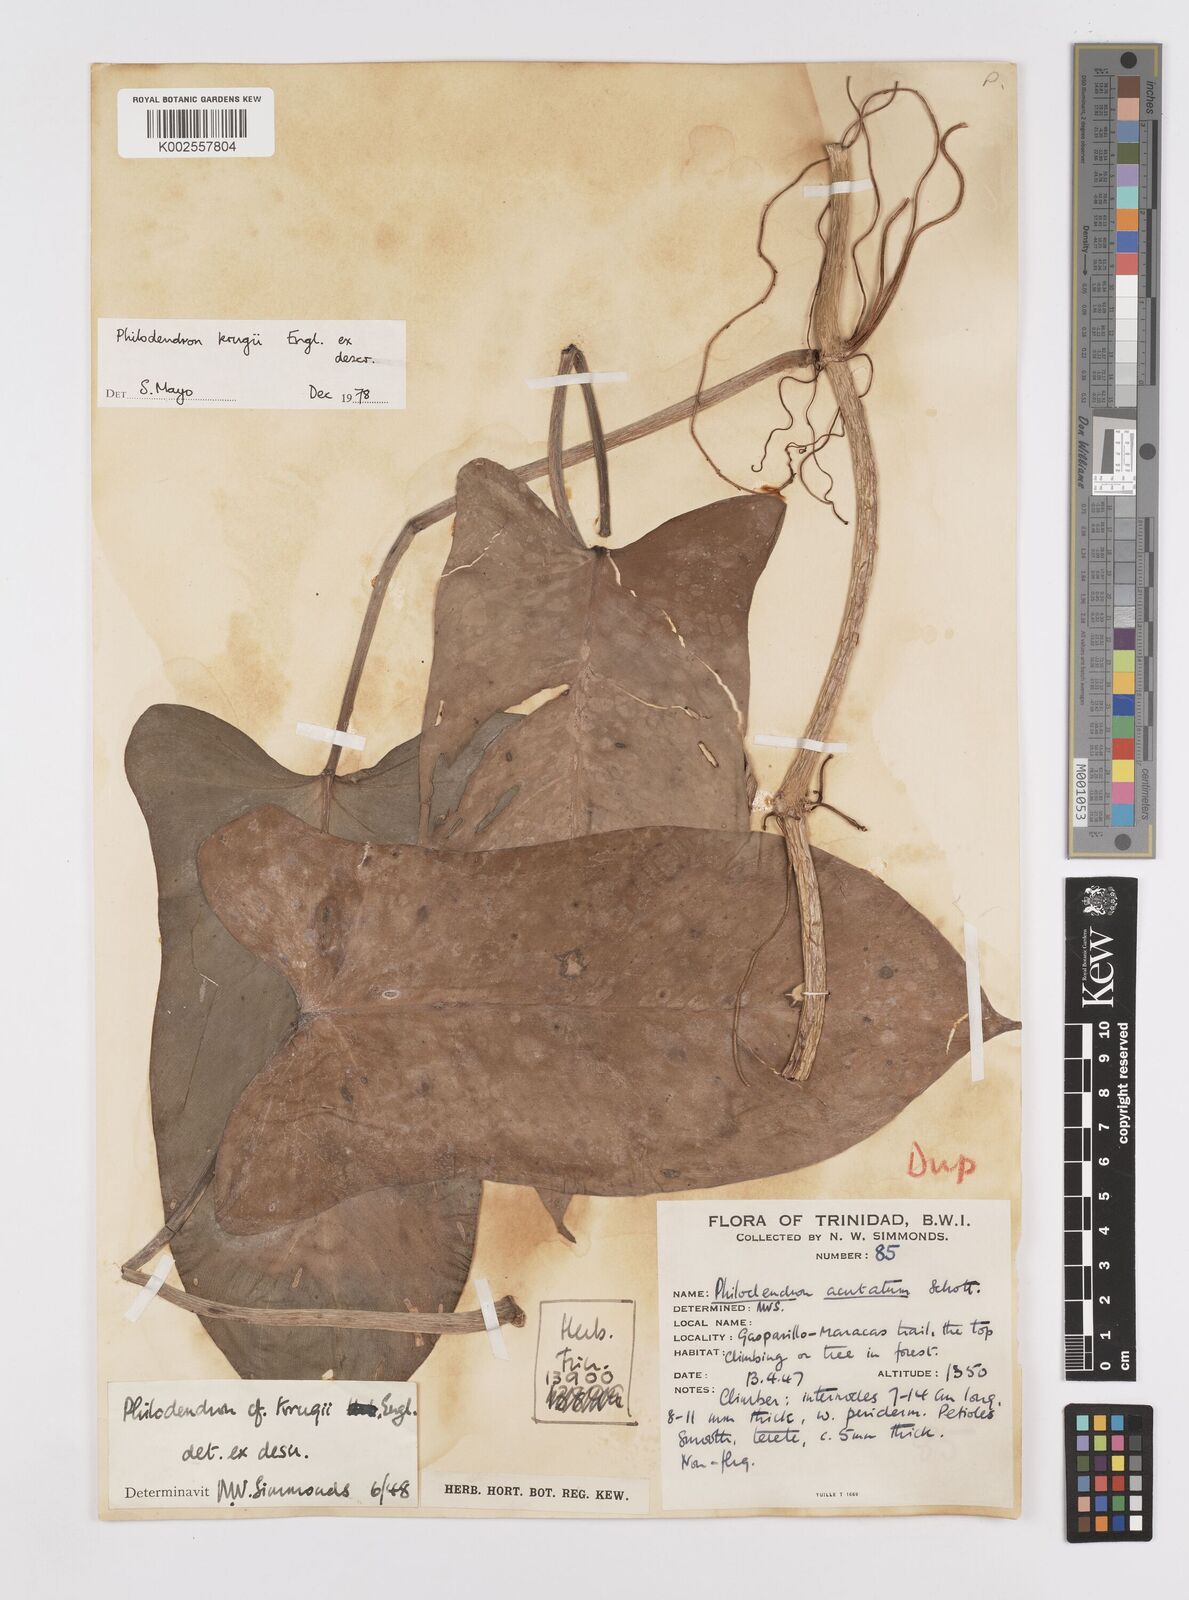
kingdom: Plantae
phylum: Tracheophyta
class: Liliopsida
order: Alismatales
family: Araceae
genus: Philodendron
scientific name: Philodendron krugii
